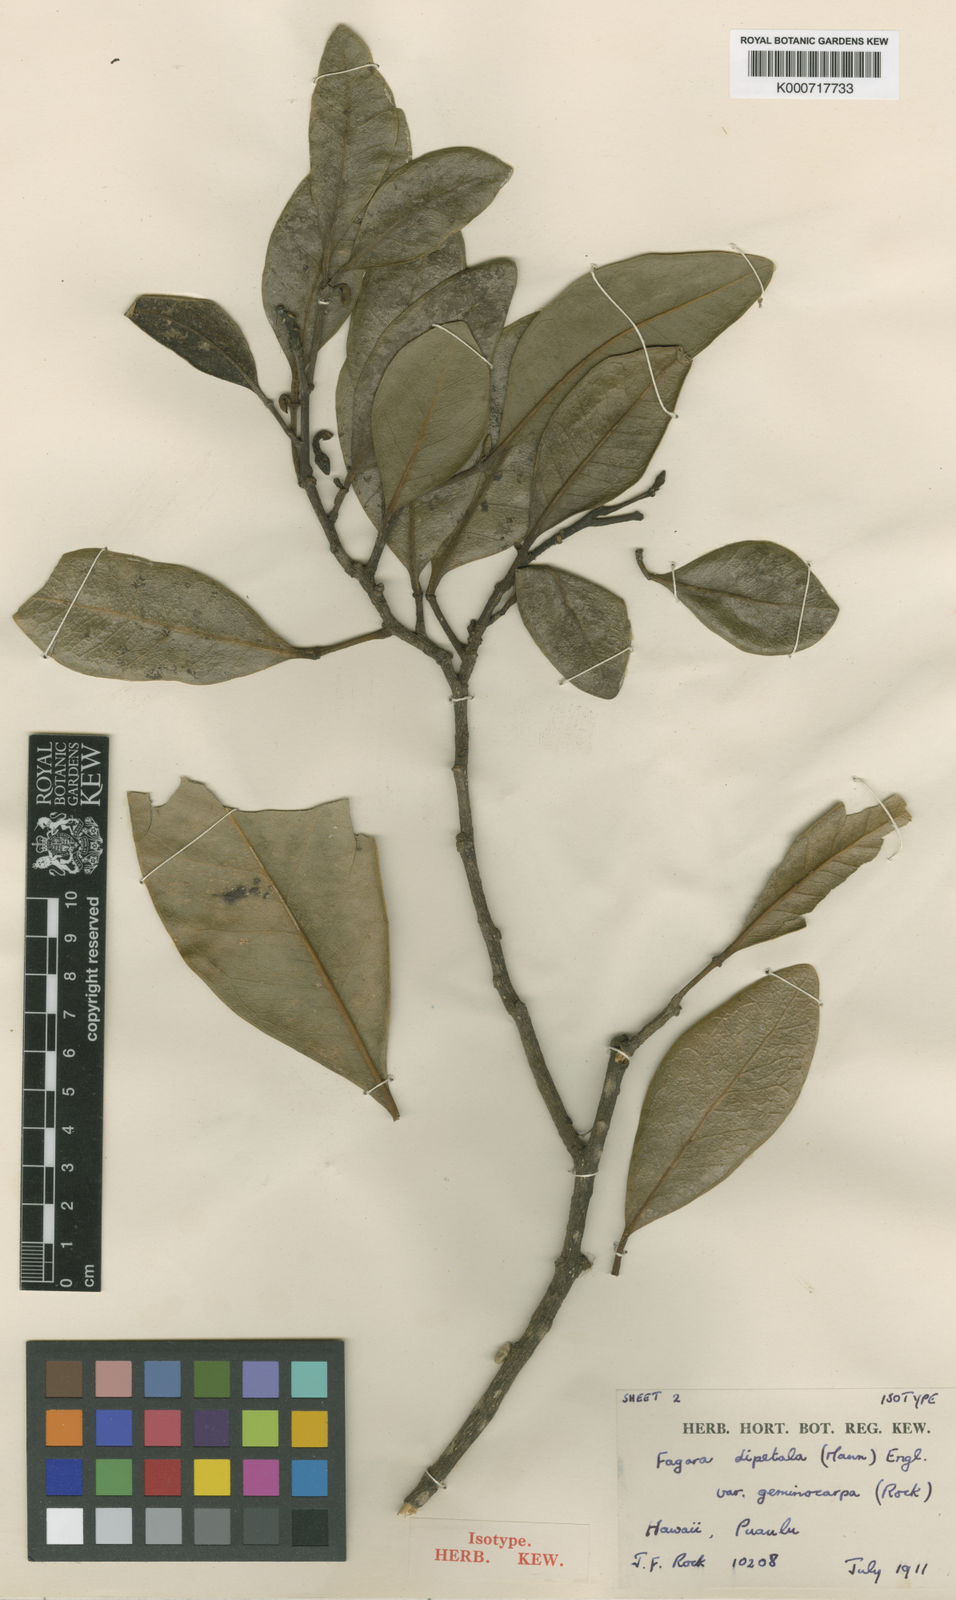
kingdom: Plantae
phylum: Tracheophyta
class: Magnoliopsida
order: Sapindales
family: Rutaceae
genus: Zanthoxylum
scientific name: Zanthoxylum dipetalum
